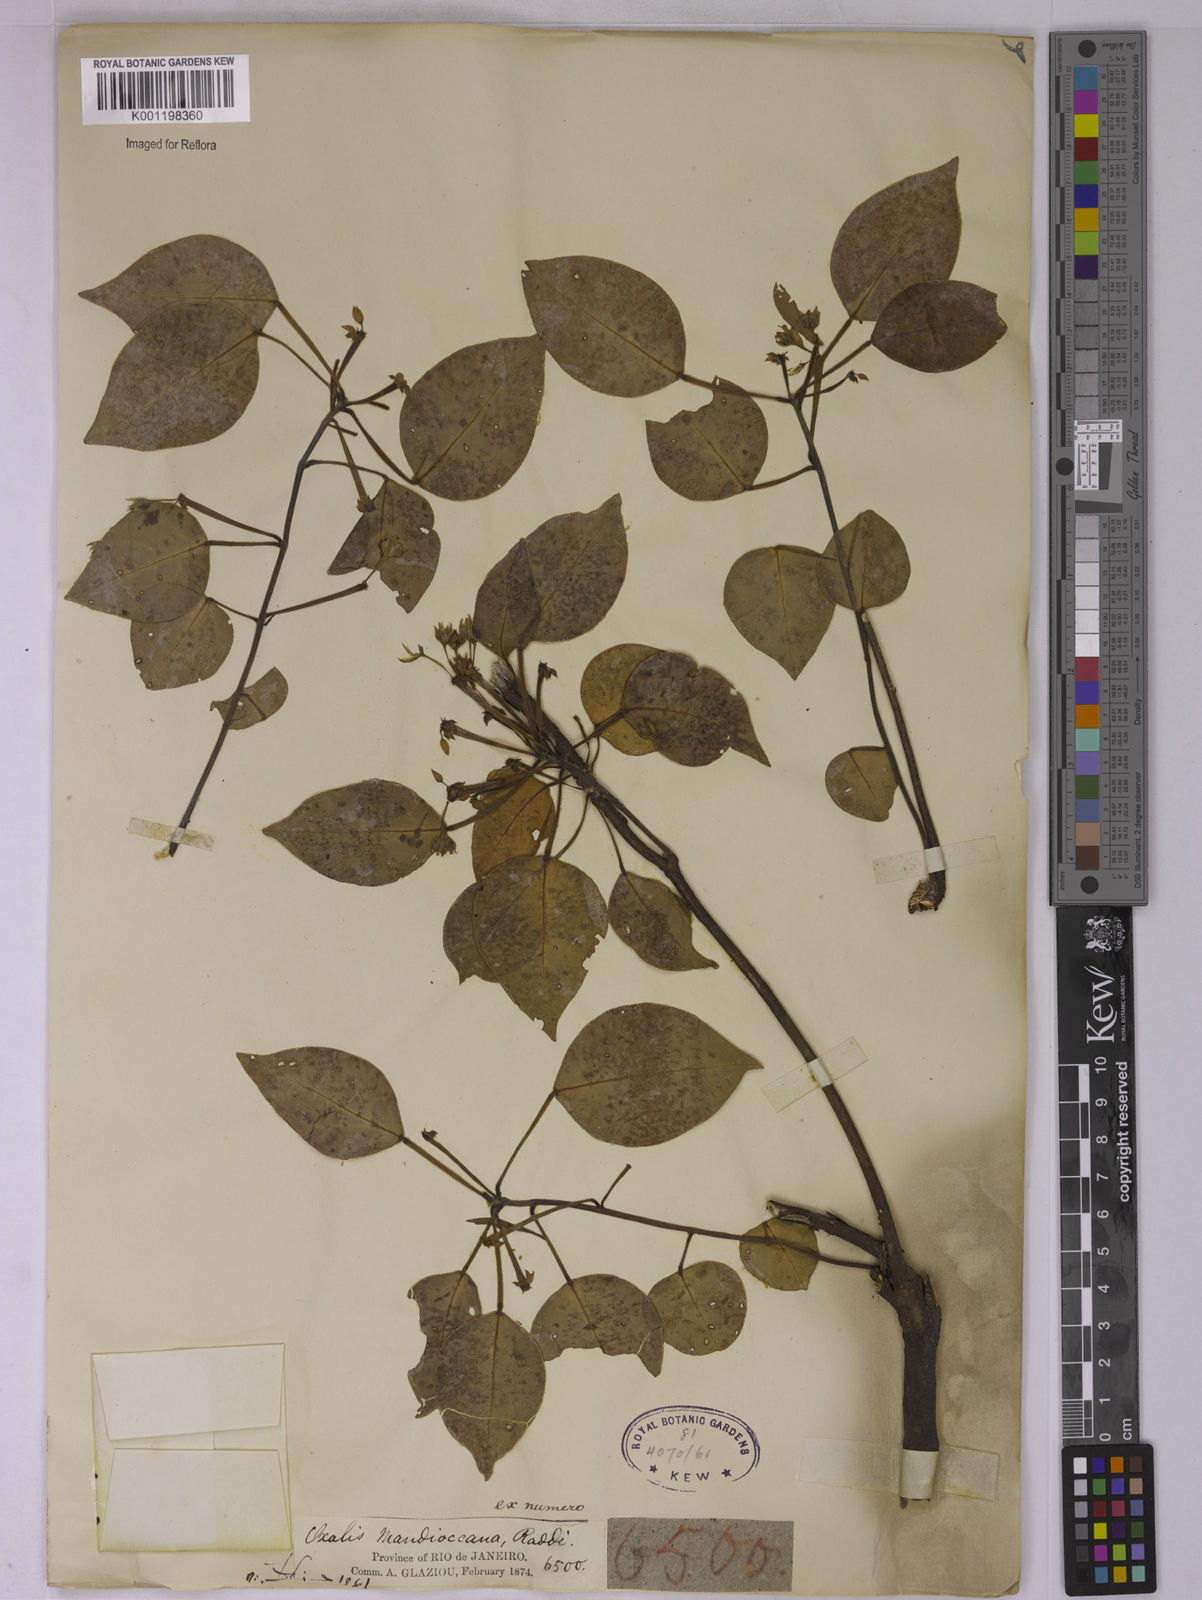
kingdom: Plantae
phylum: Tracheophyta
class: Magnoliopsida
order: Oxalidales
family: Oxalidaceae
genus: Oxalis
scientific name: Oxalis mandioccana
